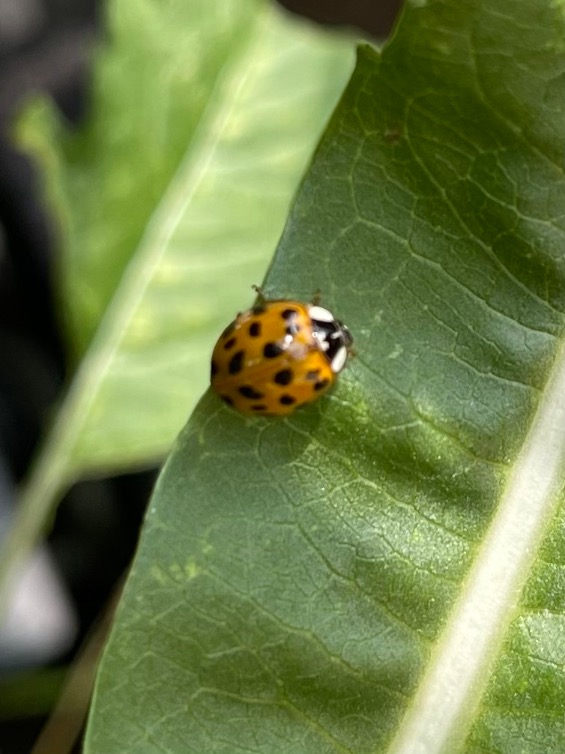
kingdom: Animalia
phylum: Arthropoda
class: Insecta
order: Coleoptera
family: Coccinellidae
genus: Harmonia
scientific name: Harmonia axyridis
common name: Harlekinmariehøne
